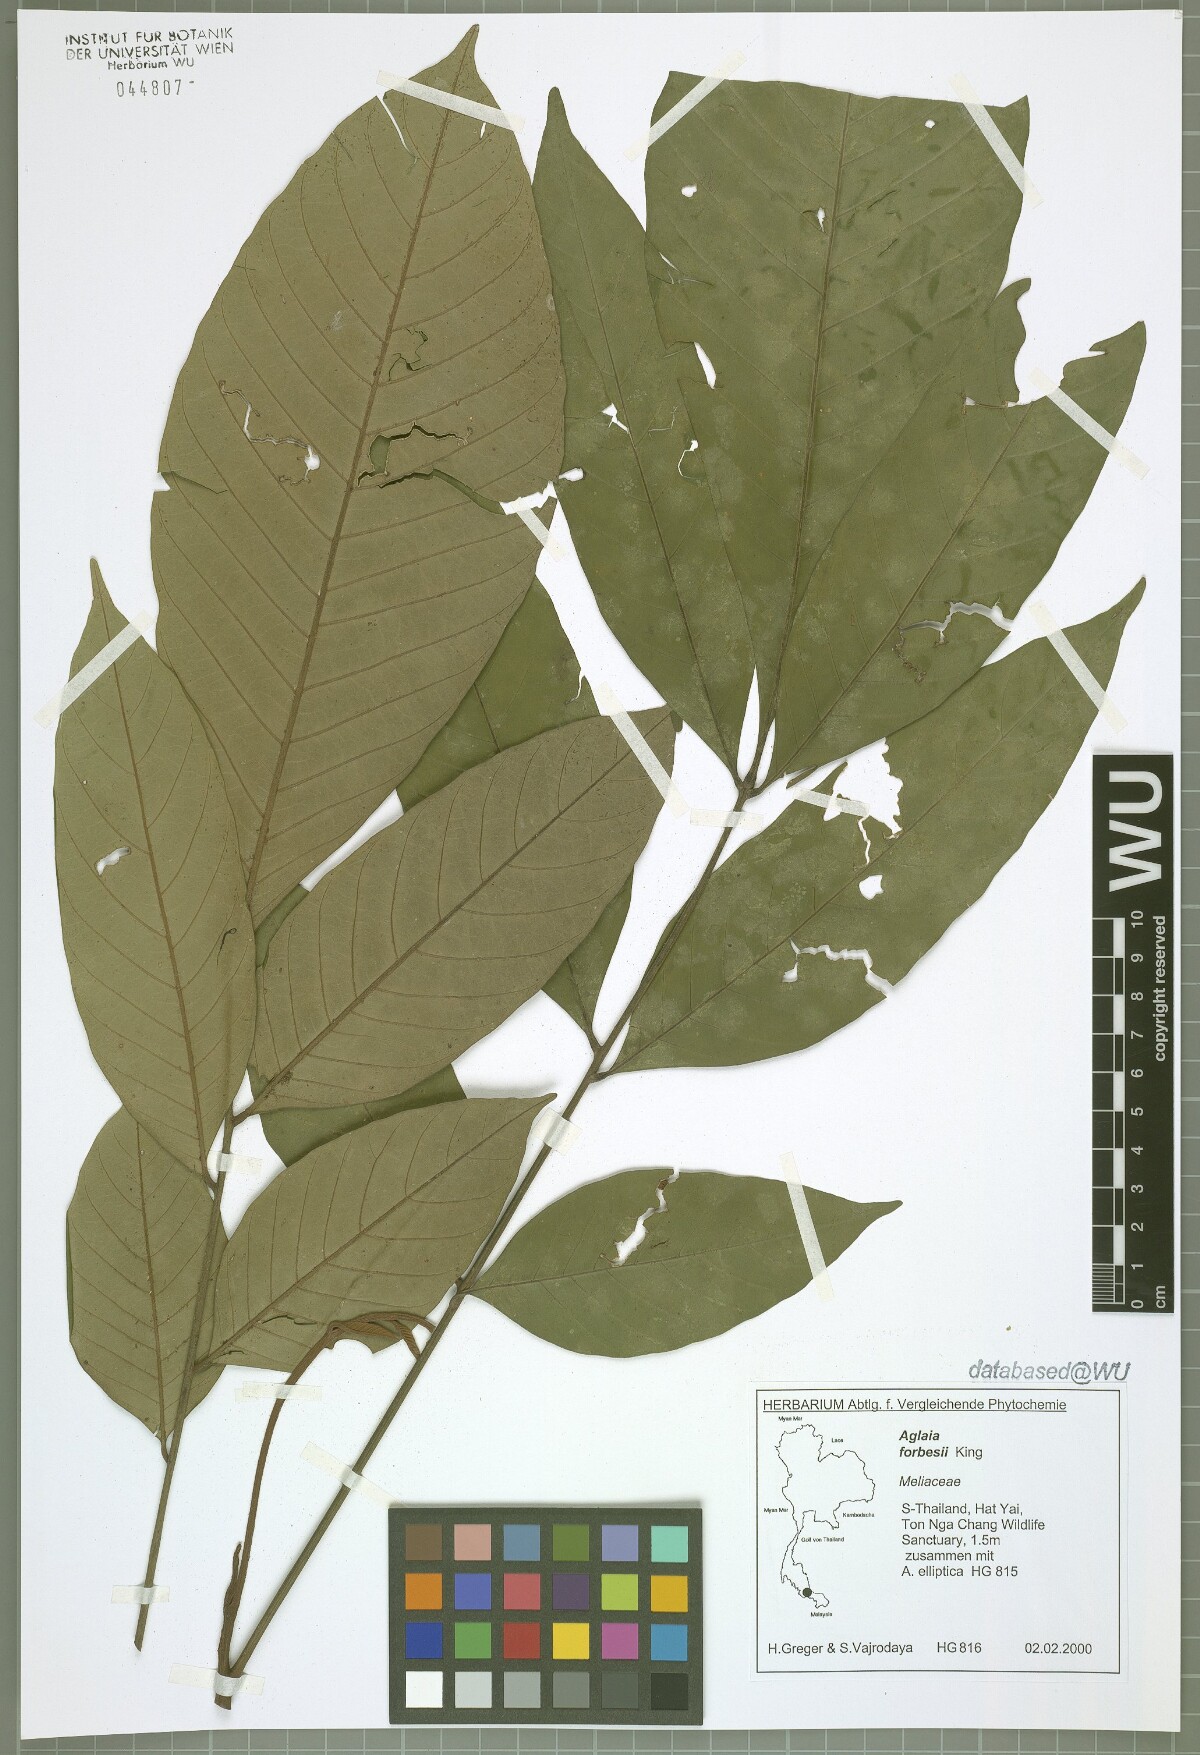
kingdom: Plantae
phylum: Tracheophyta
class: Magnoliopsida
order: Sapindales
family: Meliaceae
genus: Aglaia
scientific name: Aglaia forbesii
